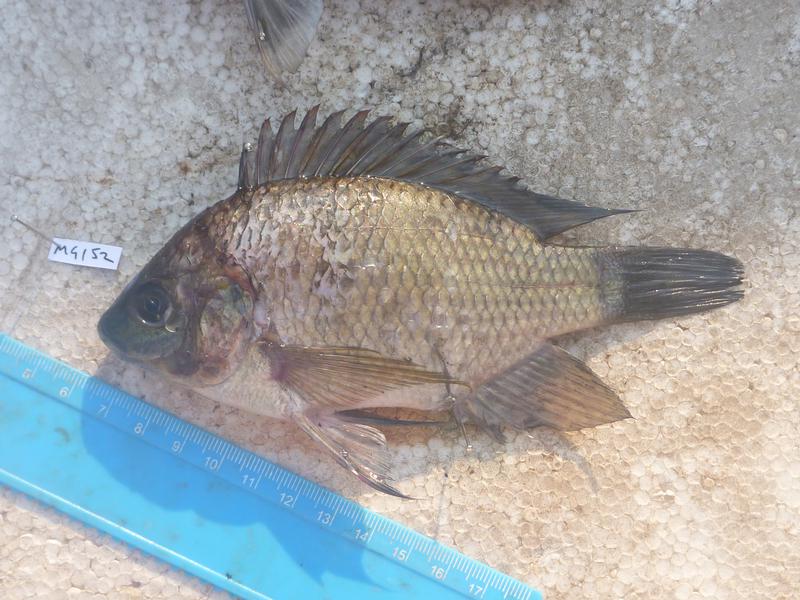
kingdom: Animalia
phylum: Chordata
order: Perciformes
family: Cichlidae
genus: Oreochromis
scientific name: Oreochromis upembae
